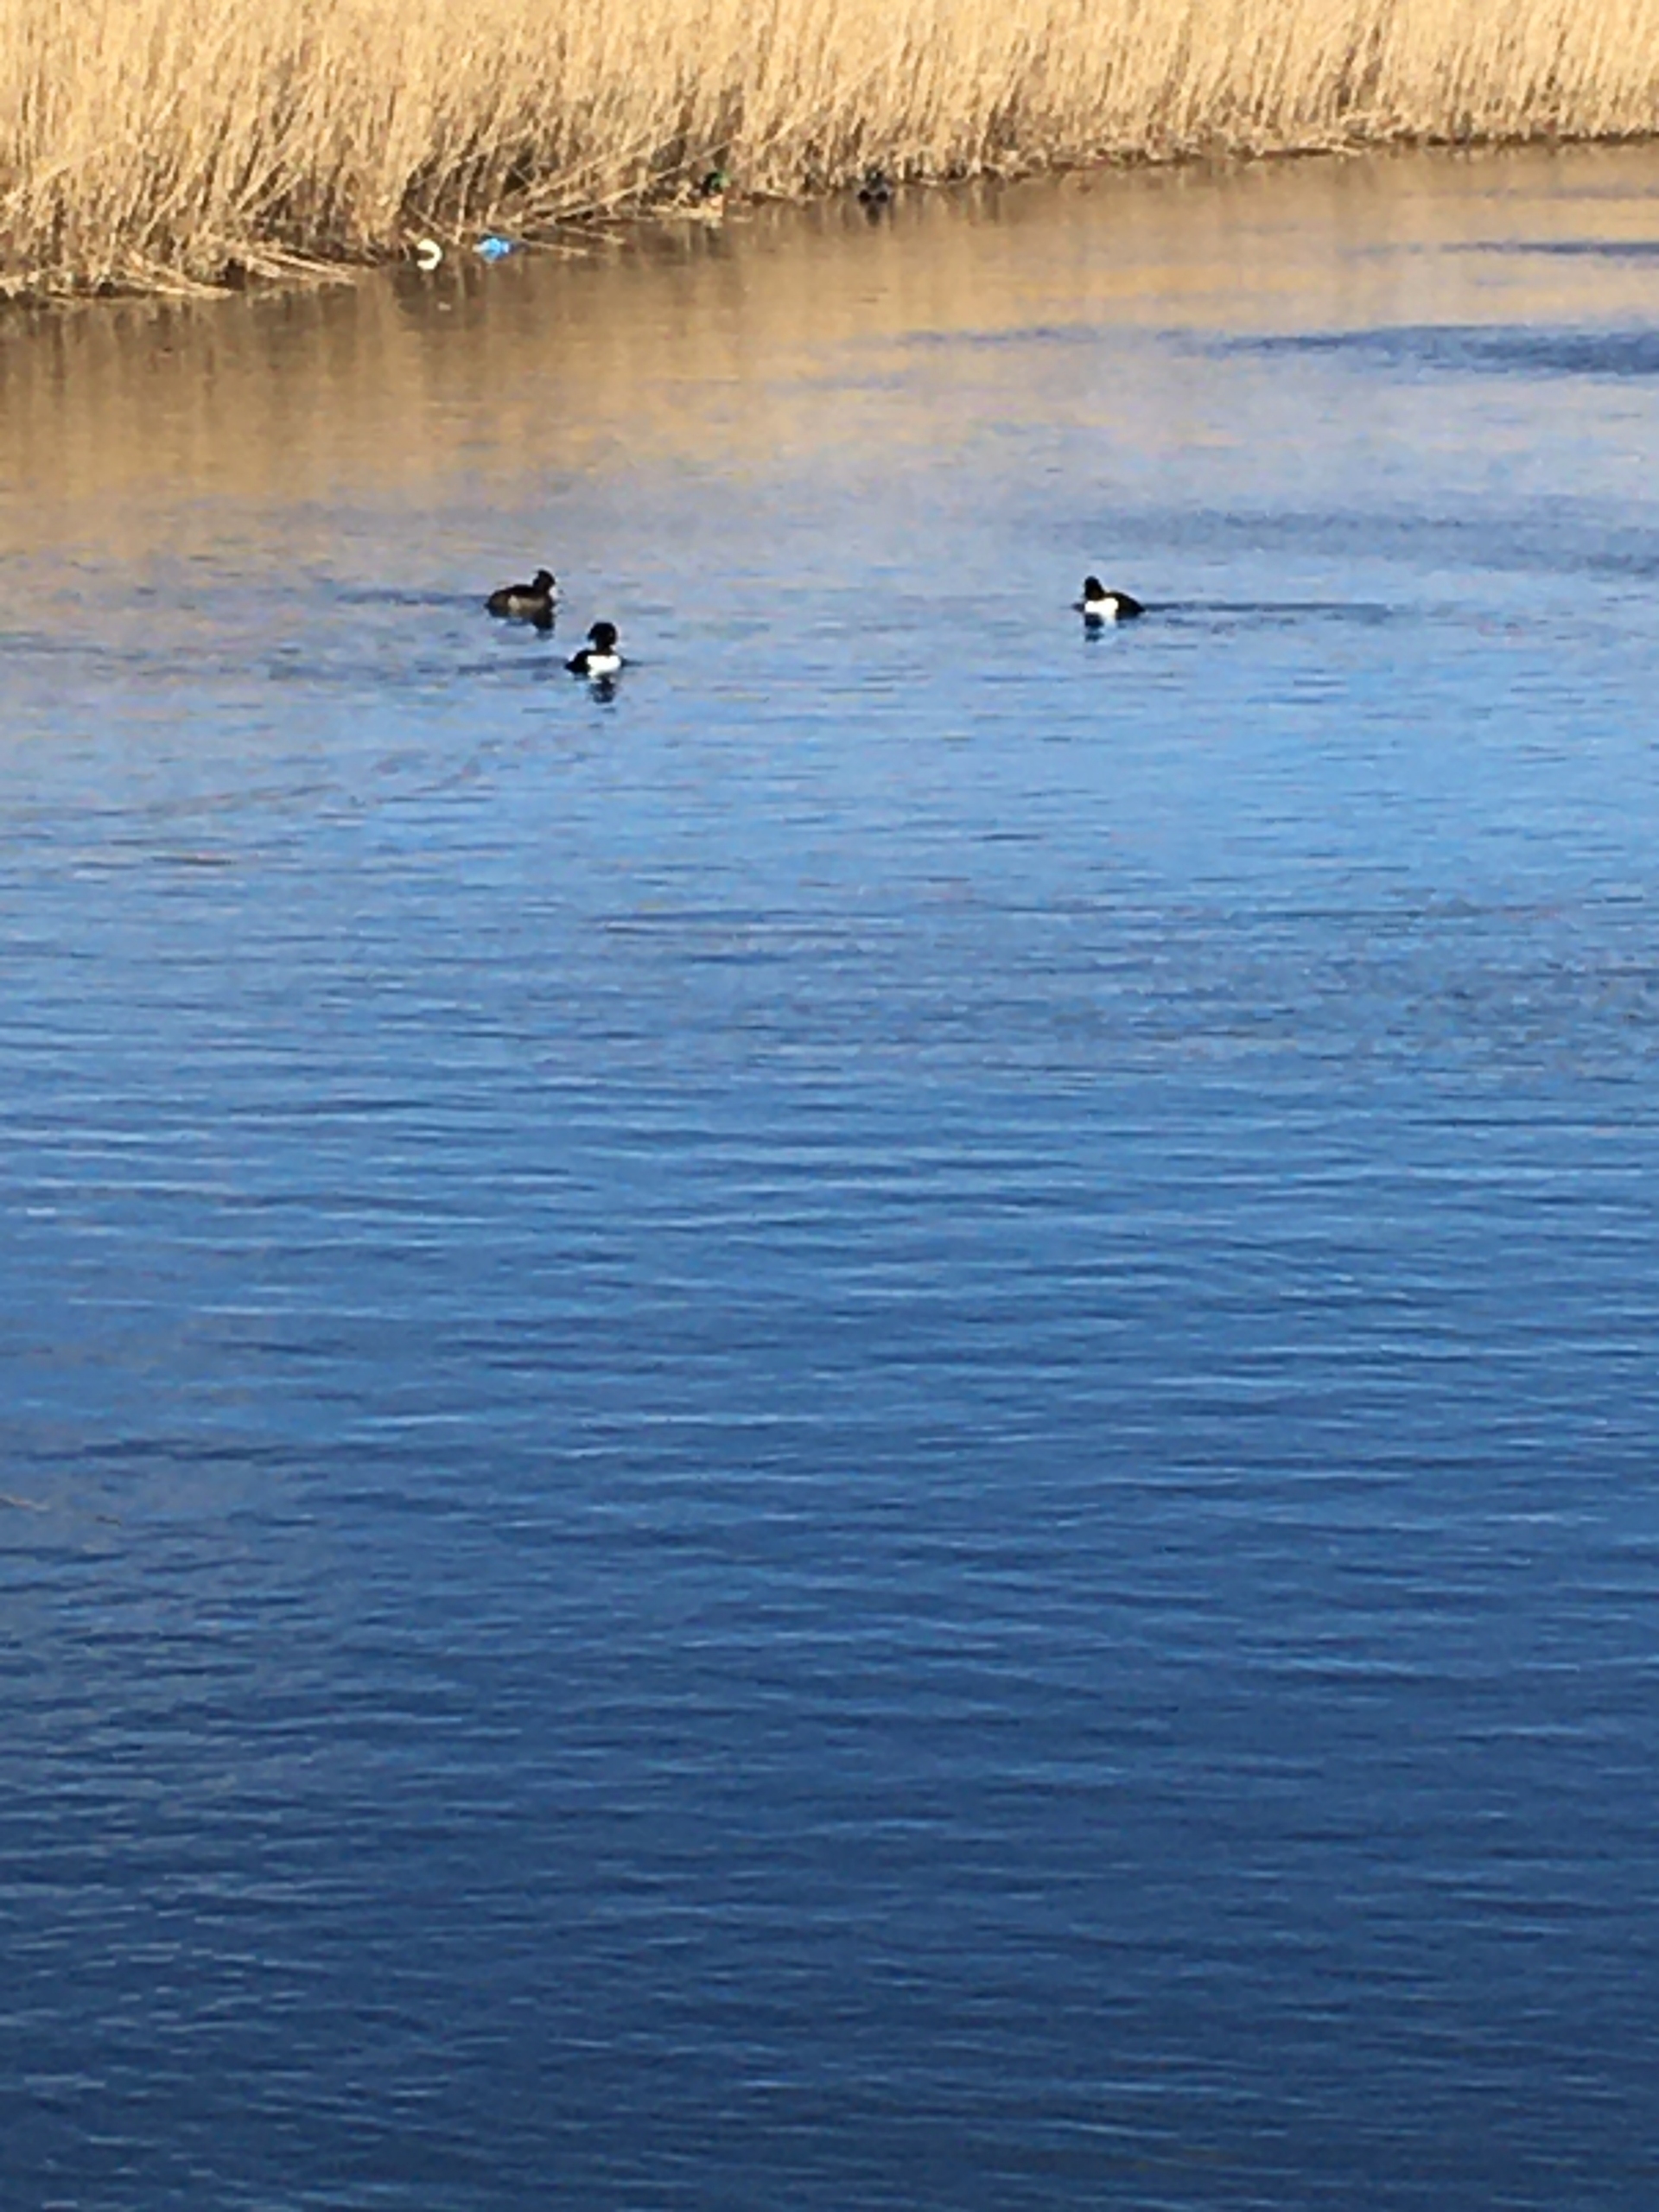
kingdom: Animalia
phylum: Chordata
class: Aves
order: Anseriformes
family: Anatidae
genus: Aythya
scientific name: Aythya fuligula
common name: Troldand
